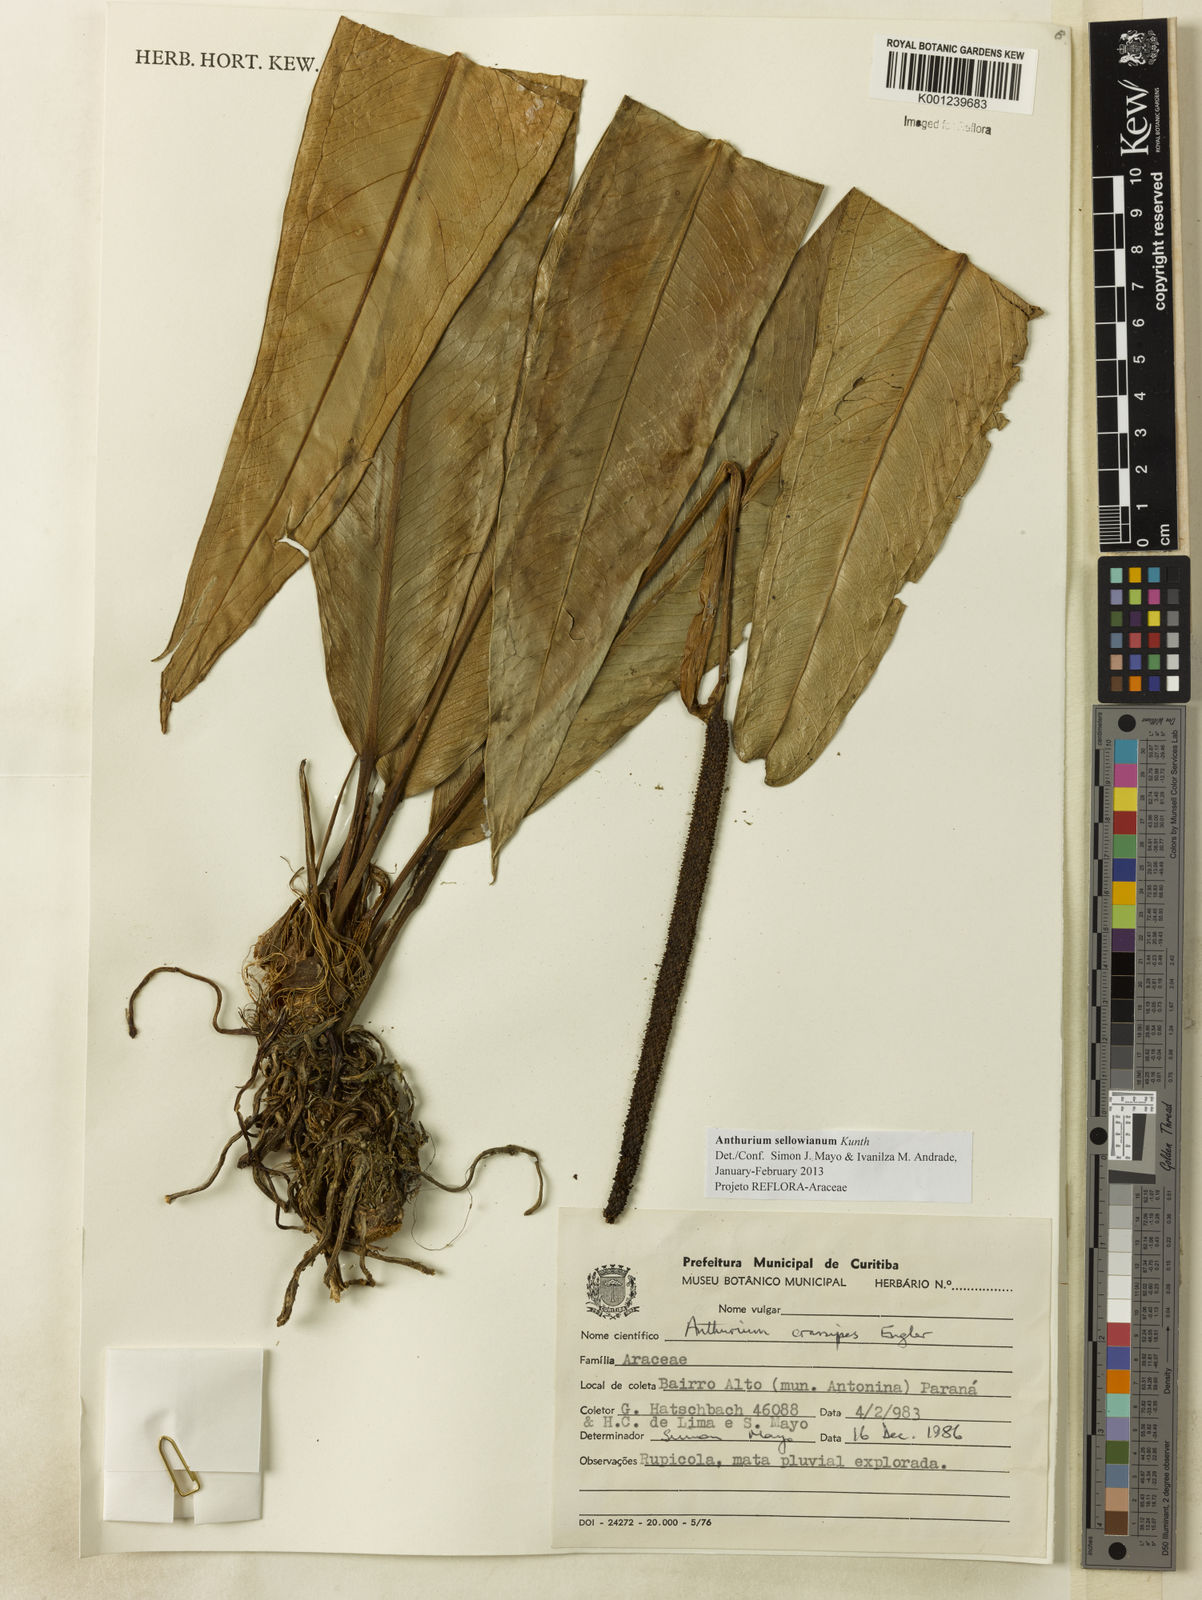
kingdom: Plantae
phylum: Tracheophyta
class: Liliopsida
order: Alismatales
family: Araceae
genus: Anthurium
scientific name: Anthurium sellowianum
